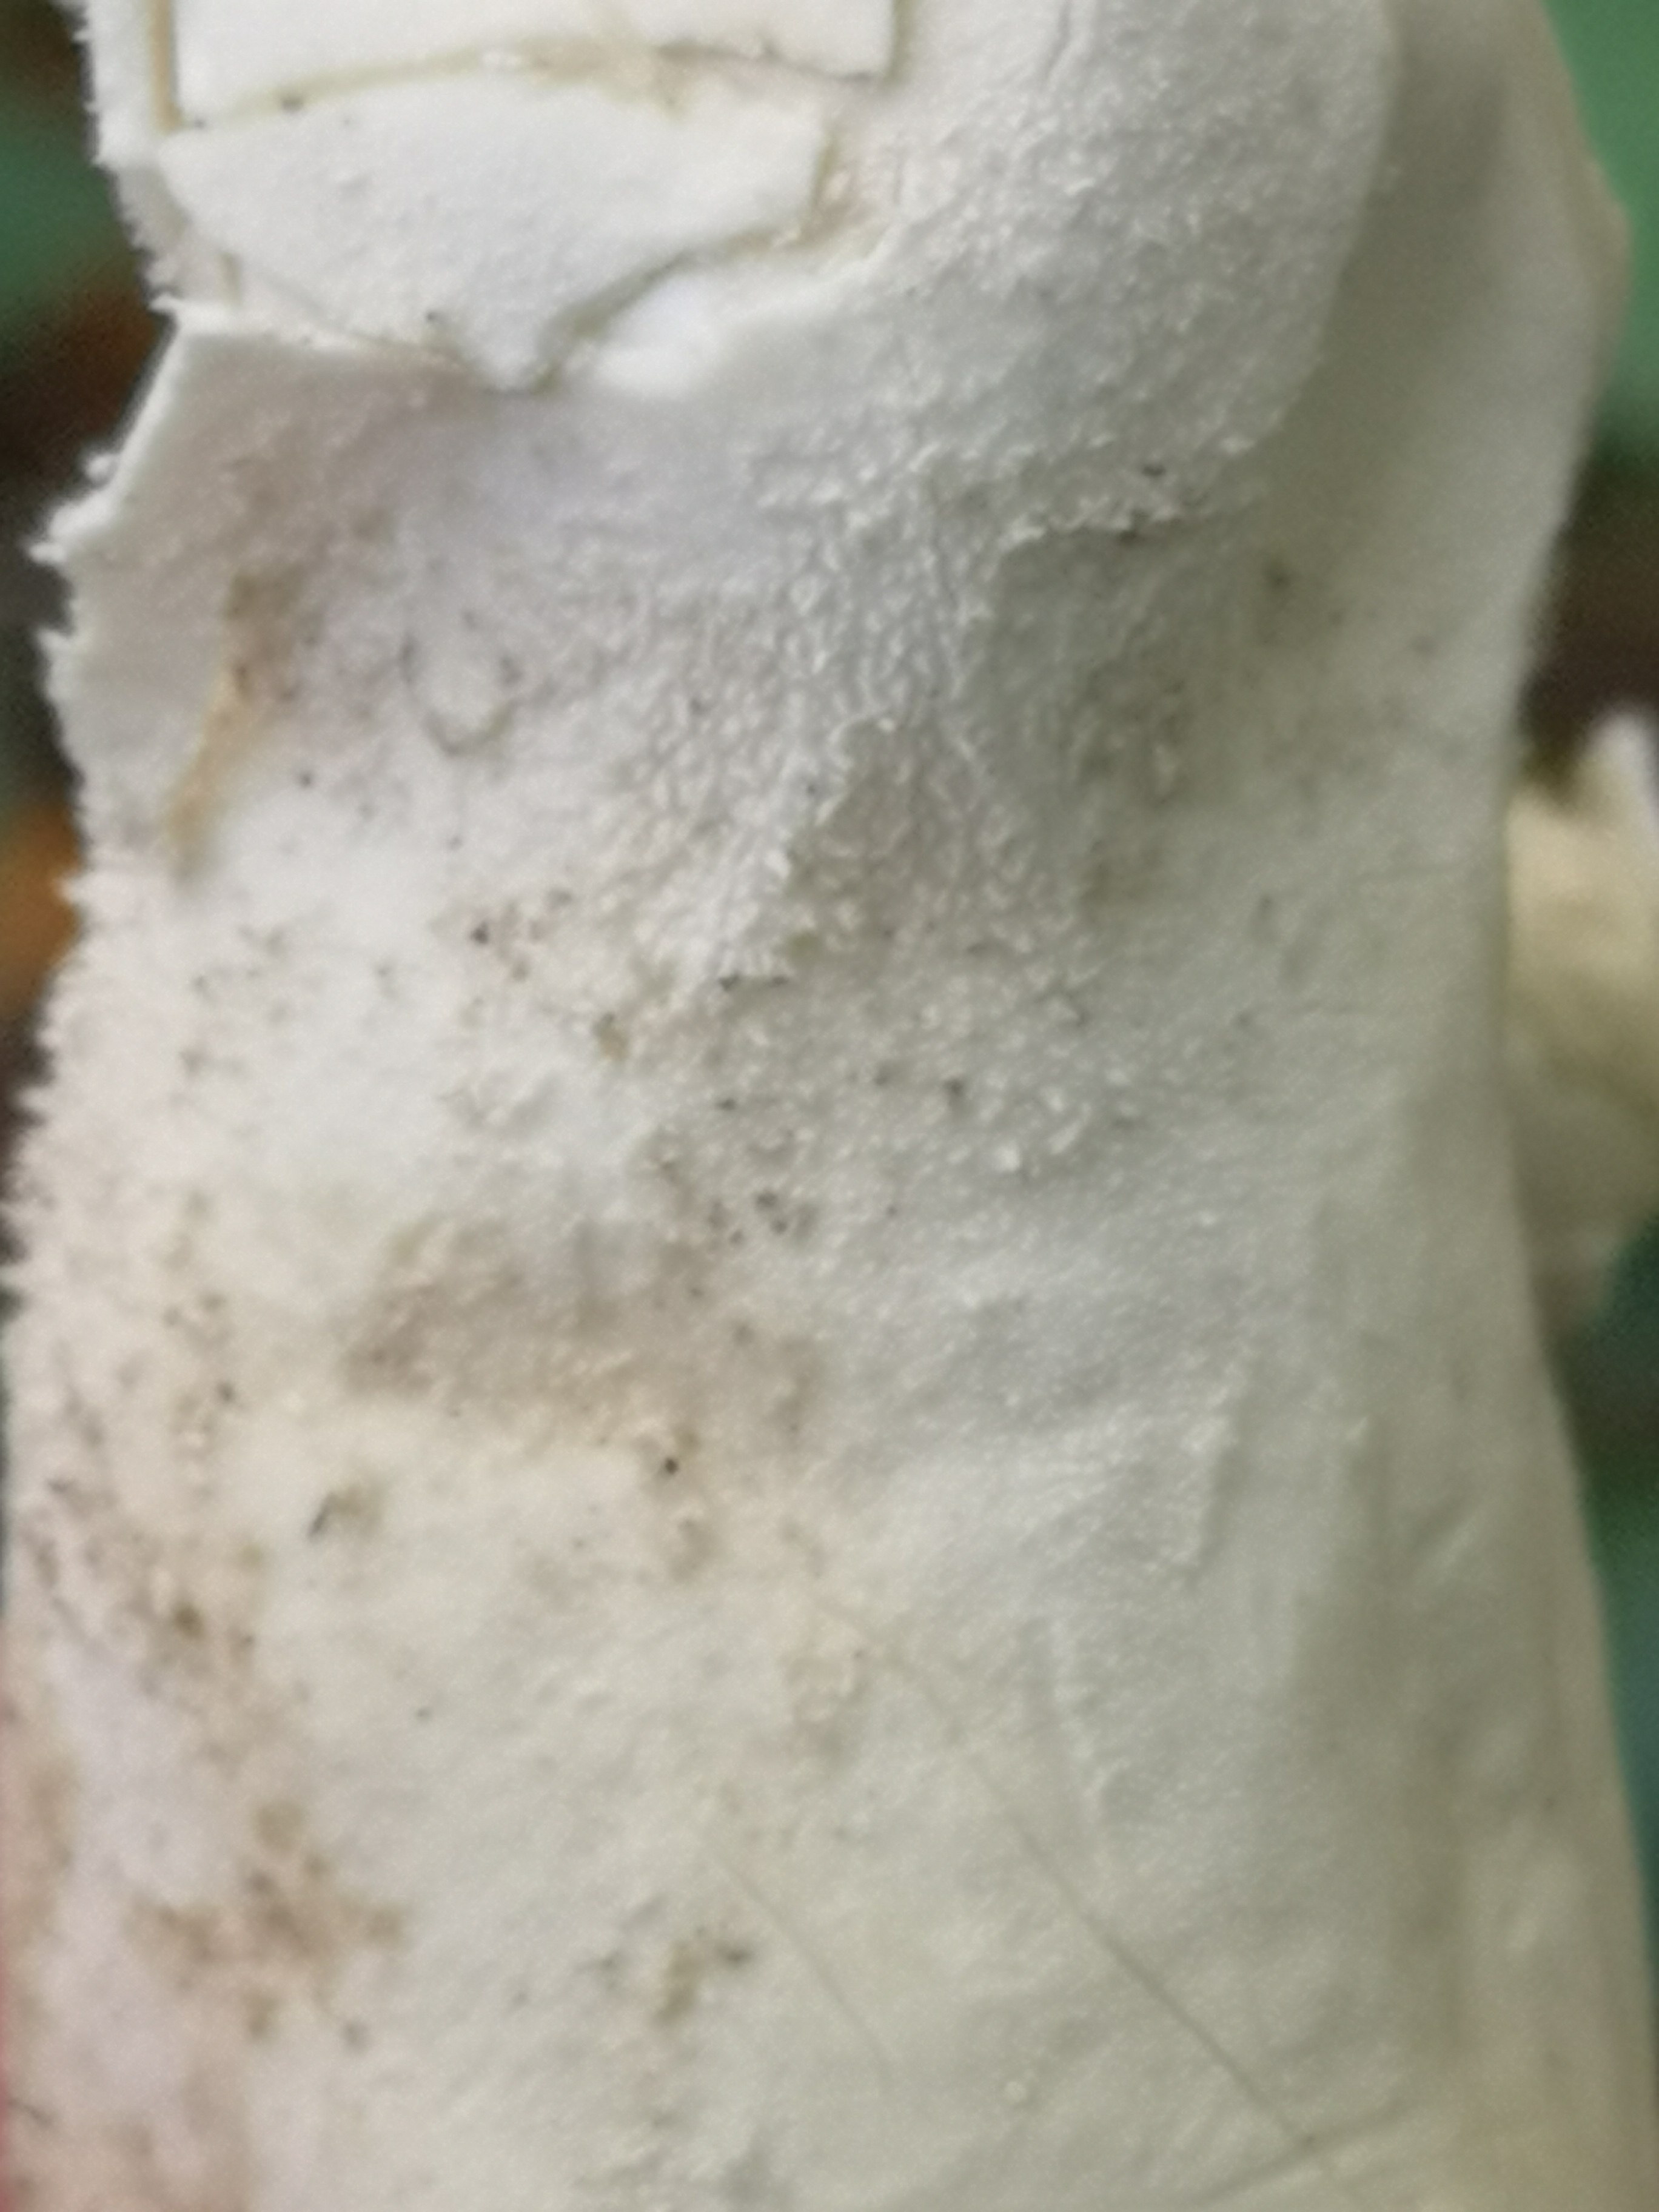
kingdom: Fungi
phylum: Basidiomycota
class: Agaricomycetes
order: Agaricales
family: Lycoperdaceae
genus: Lycoperdon
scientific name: Lycoperdon excipuliforme
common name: højstokket støvbold
